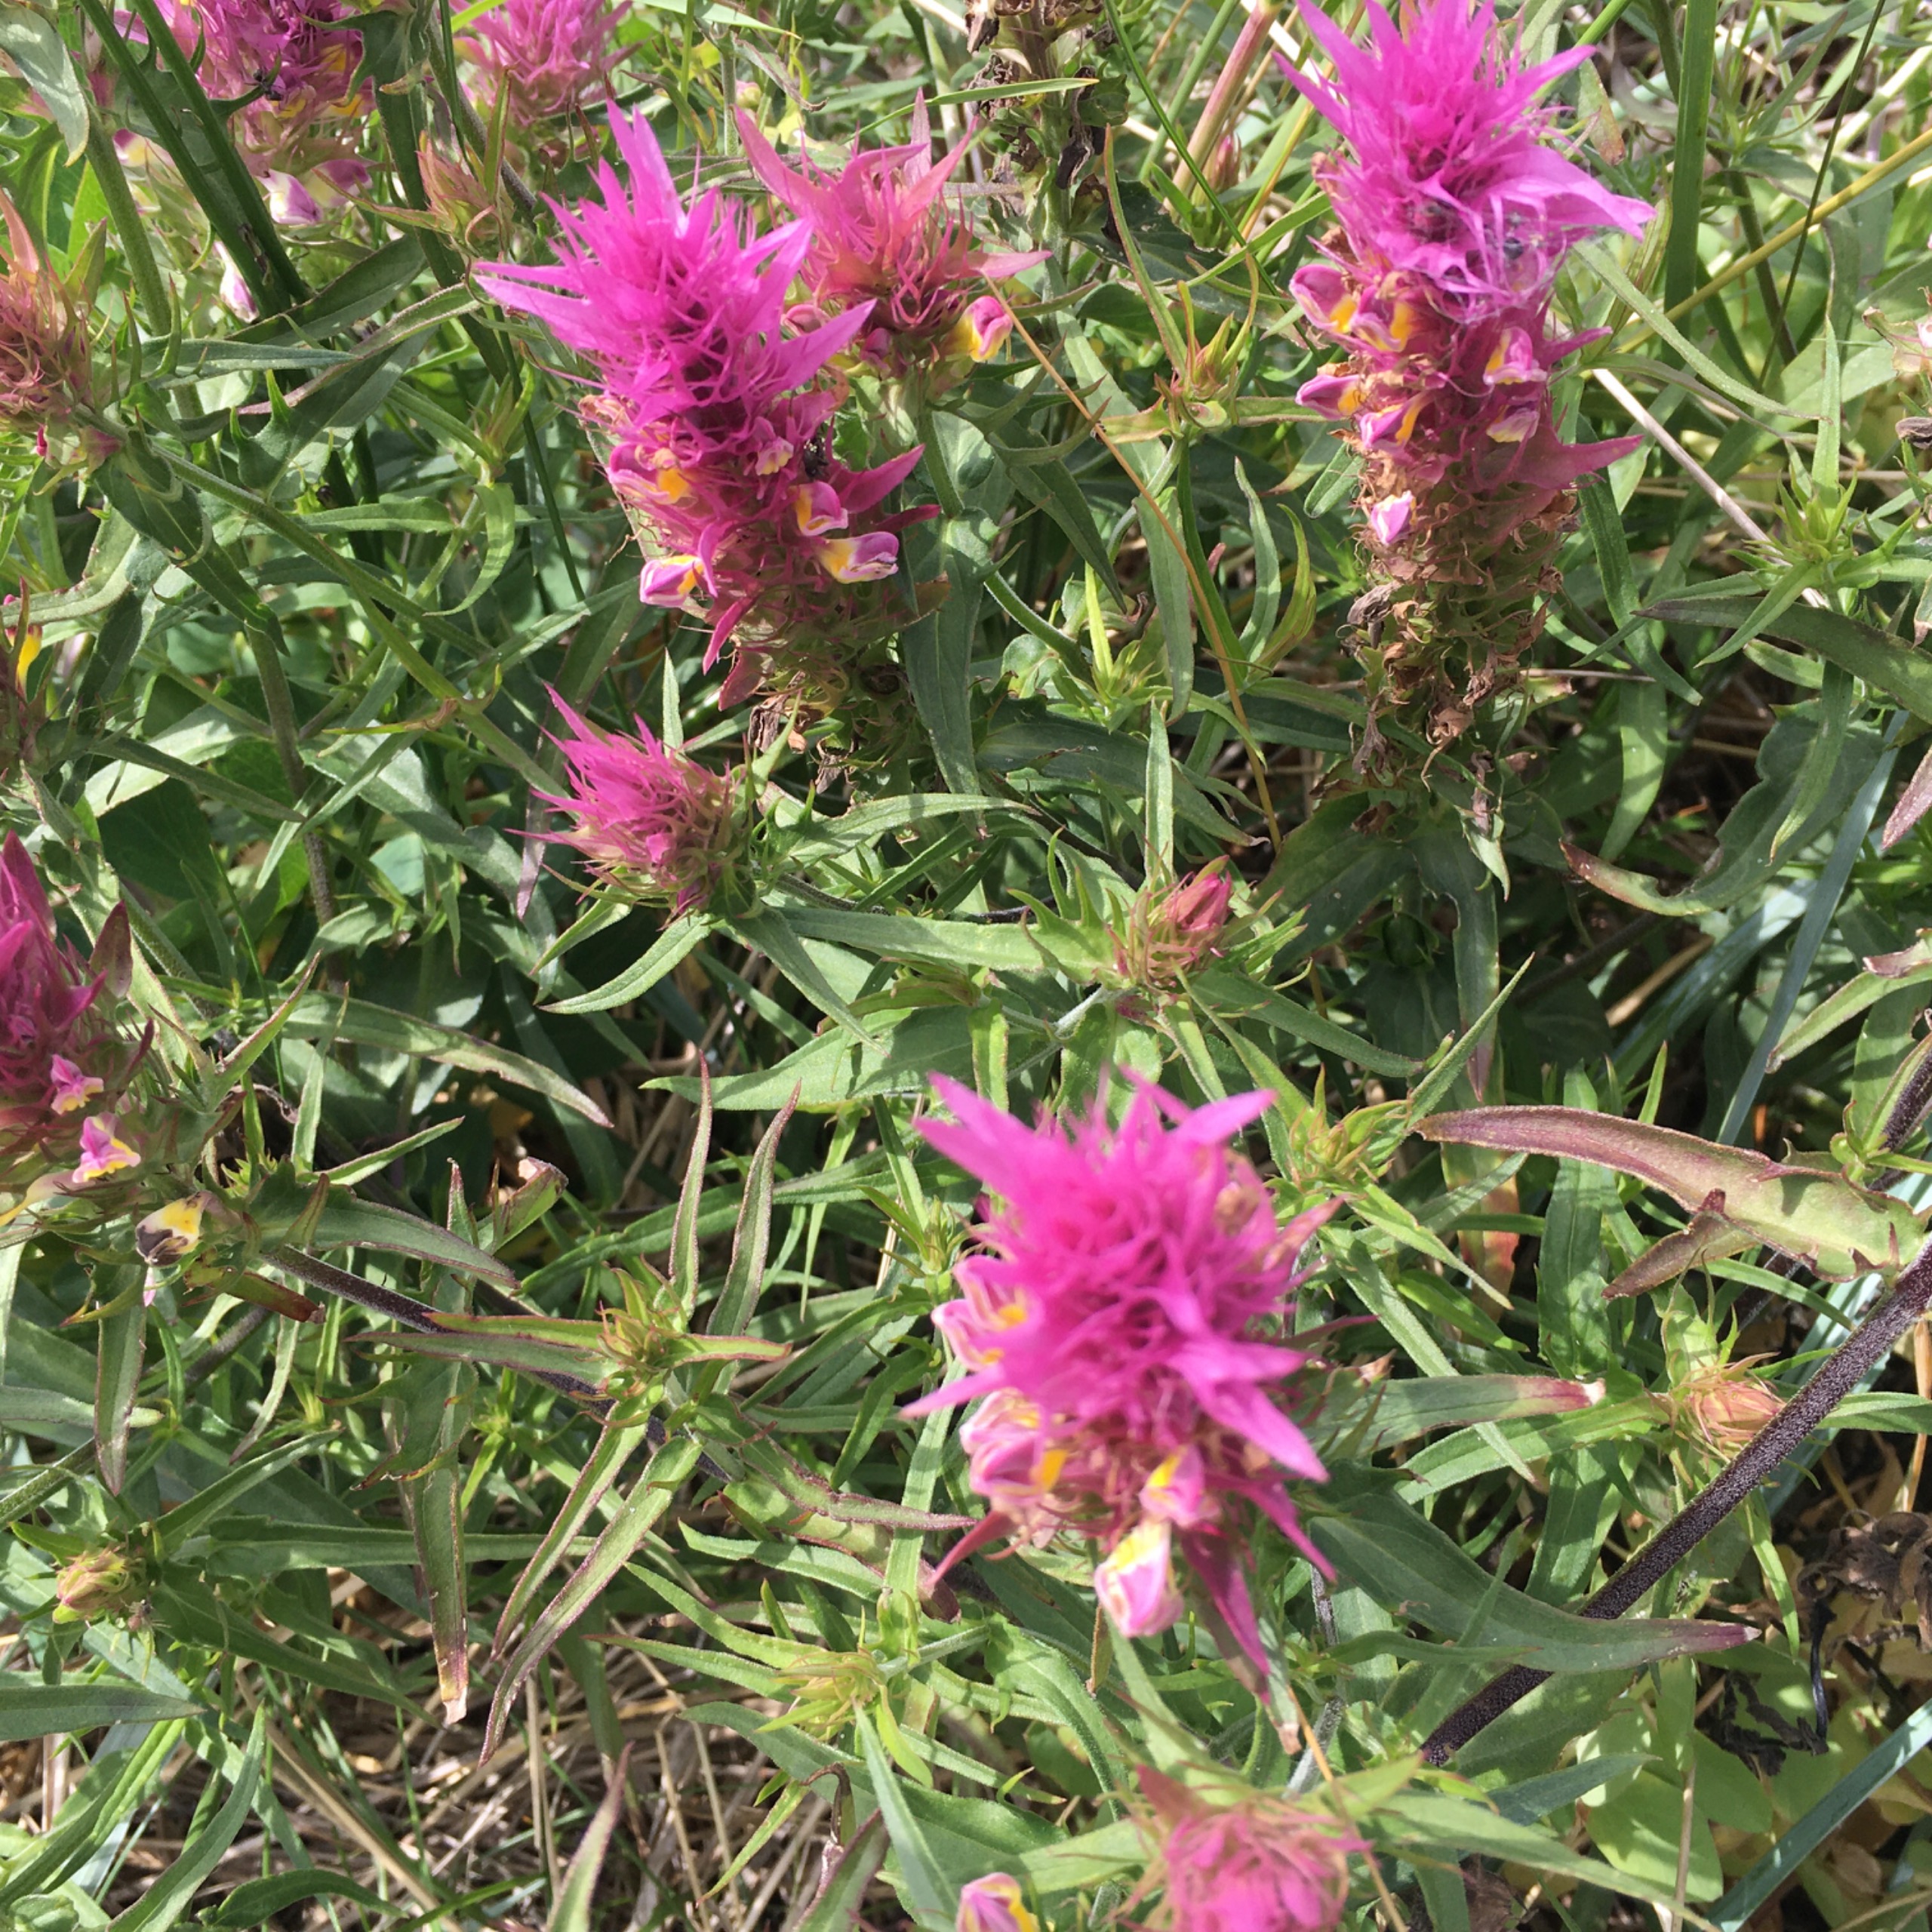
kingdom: Plantae
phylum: Tracheophyta
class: Magnoliopsida
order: Lamiales
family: Orobanchaceae
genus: Melampyrum
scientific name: Melampyrum arvense
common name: Ager-kohvede
